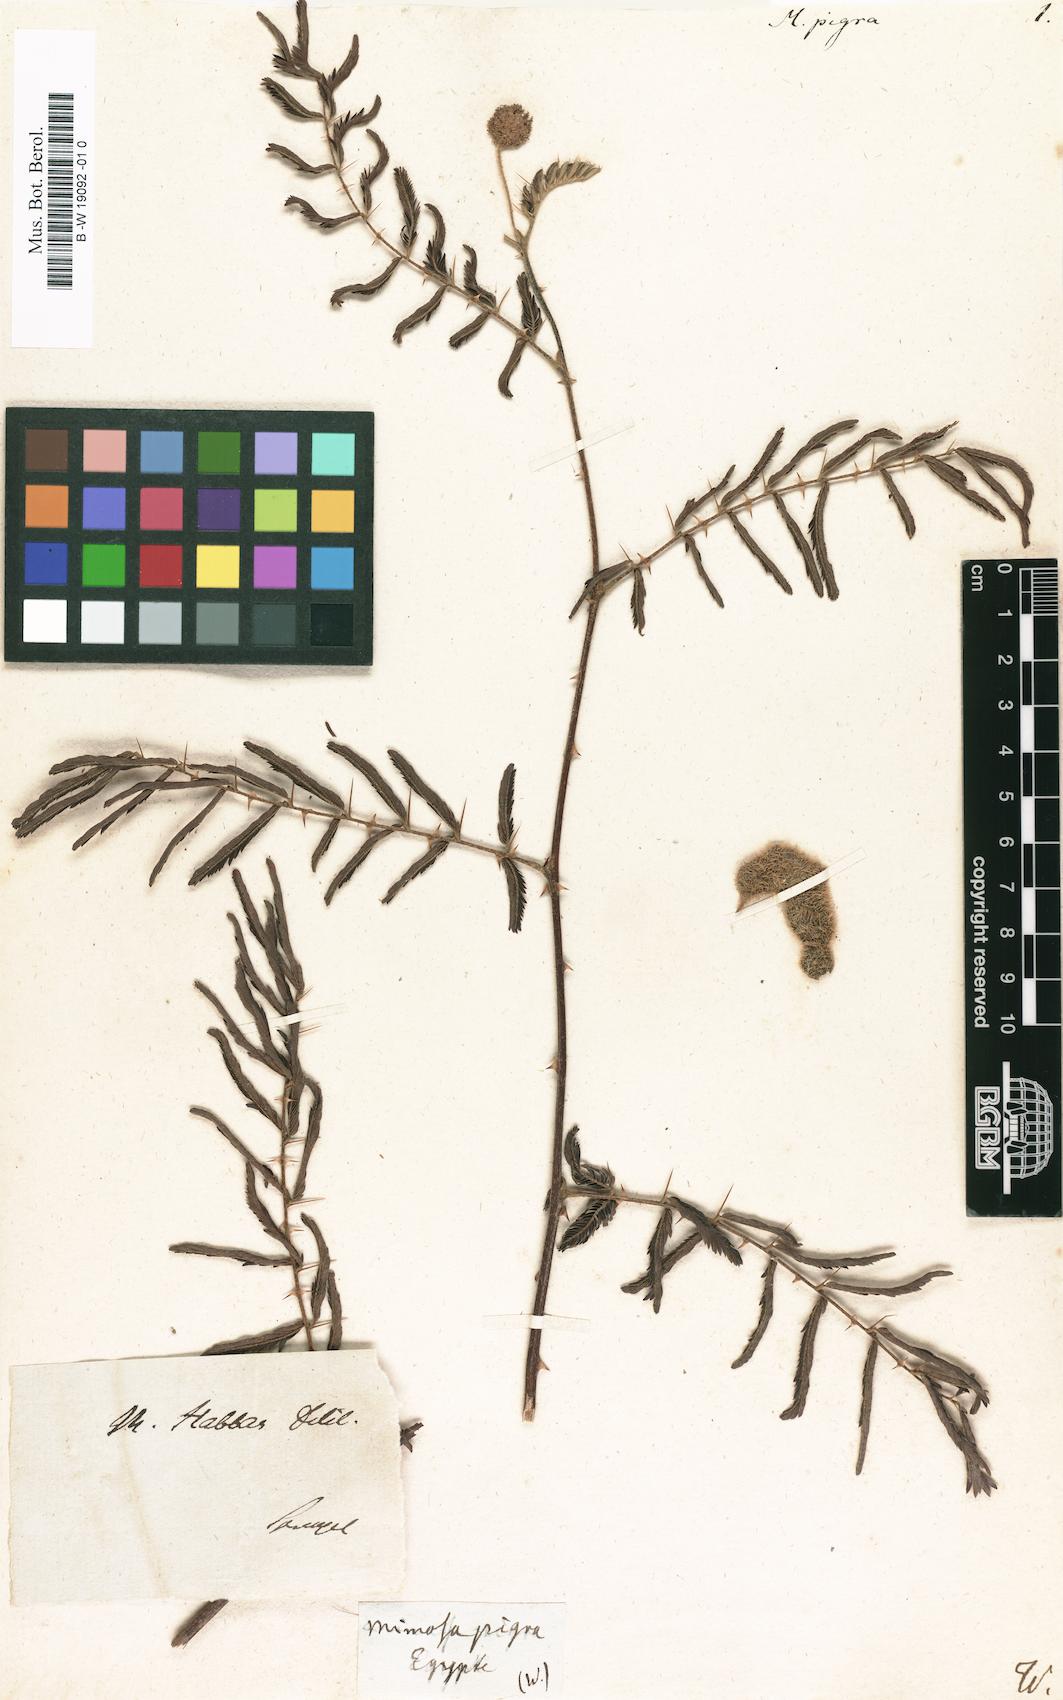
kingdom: Plantae
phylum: Tracheophyta
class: Magnoliopsida
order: Fabales
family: Fabaceae
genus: Mimosa
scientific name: Mimosa pigra
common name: Black mimosa
